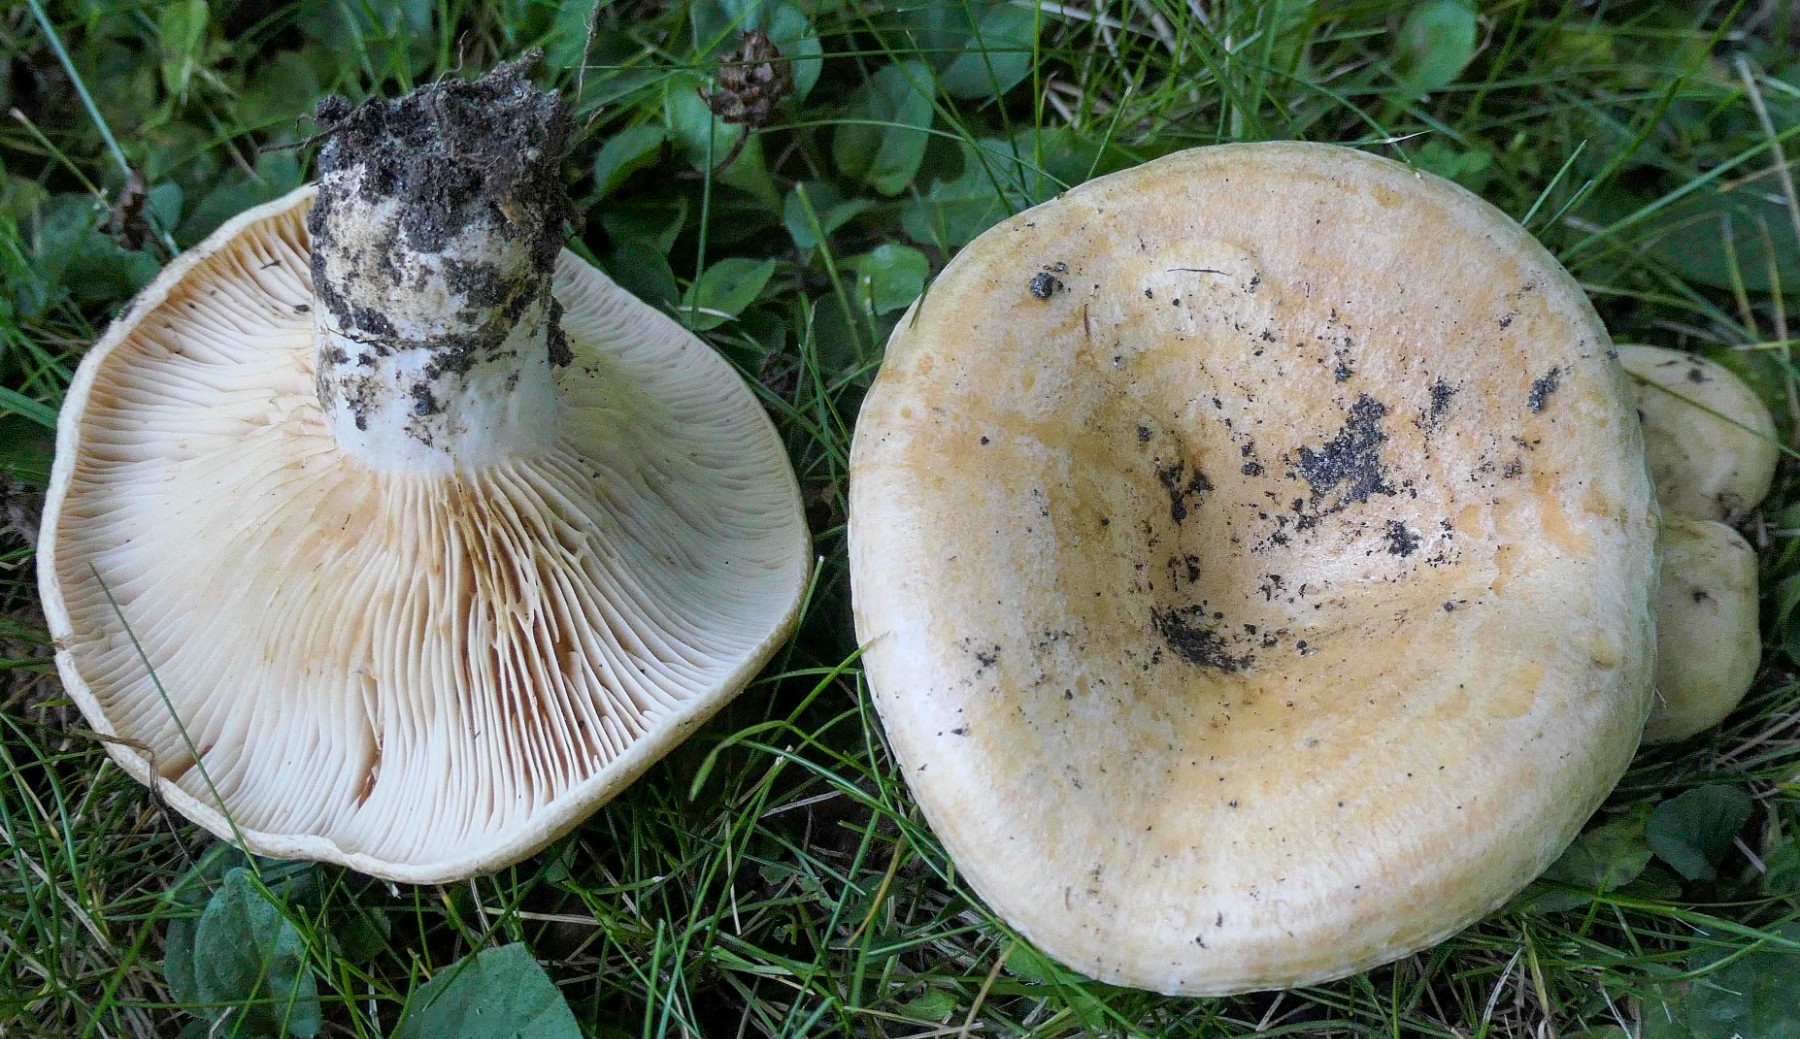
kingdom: Fungi
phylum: Basidiomycota
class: Agaricomycetes
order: Russulales
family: Russulaceae
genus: Lactarius
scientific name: Lactarius acerrimus
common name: brændende mælkehat
